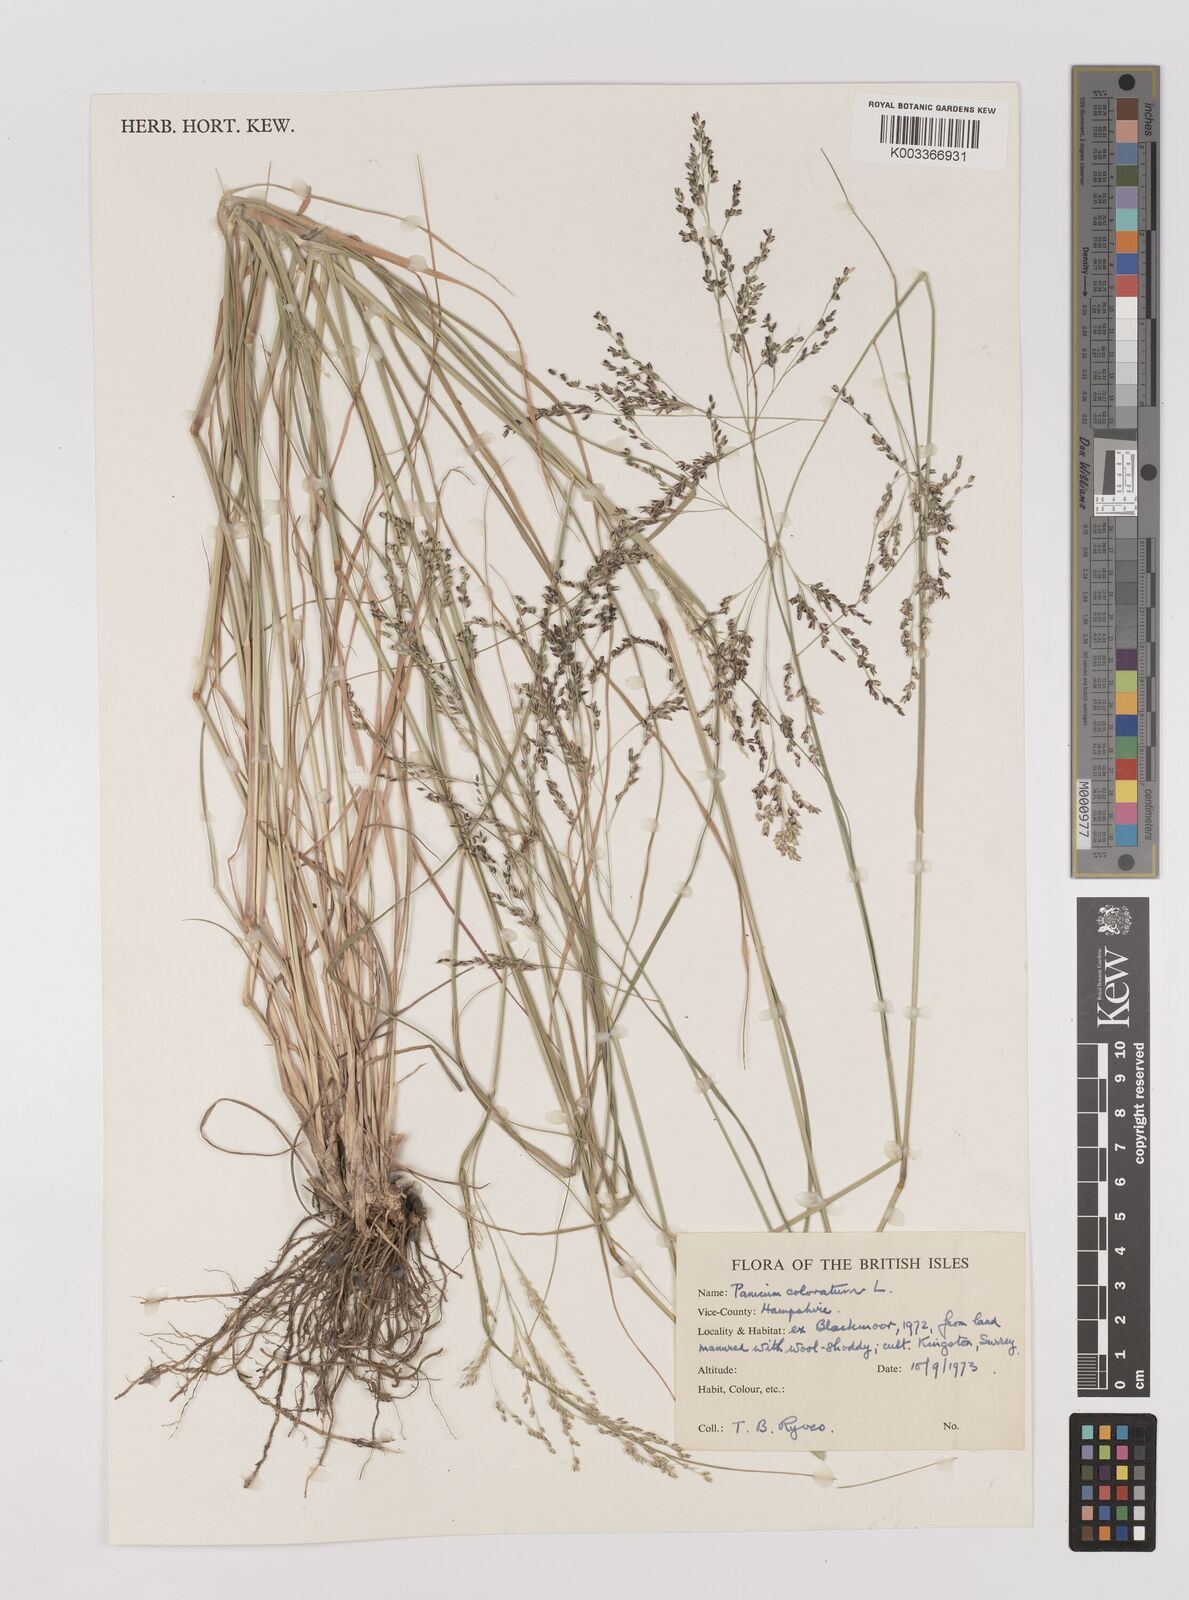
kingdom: Plantae
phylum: Tracheophyta
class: Liliopsida
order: Poales
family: Poaceae
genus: Panicum
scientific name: Panicum coloratum
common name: Kleingrass
